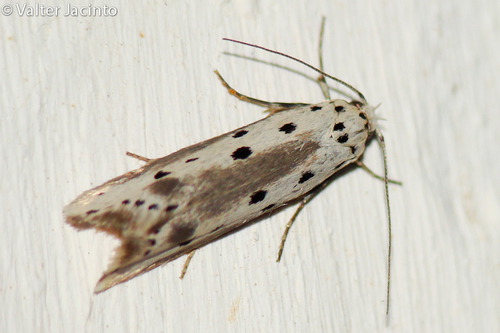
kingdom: Animalia
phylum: Arthropoda
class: Insecta
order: Lepidoptera
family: Ethmiidae
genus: Ethmia
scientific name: Ethmia terminella
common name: Five-spot ermel
